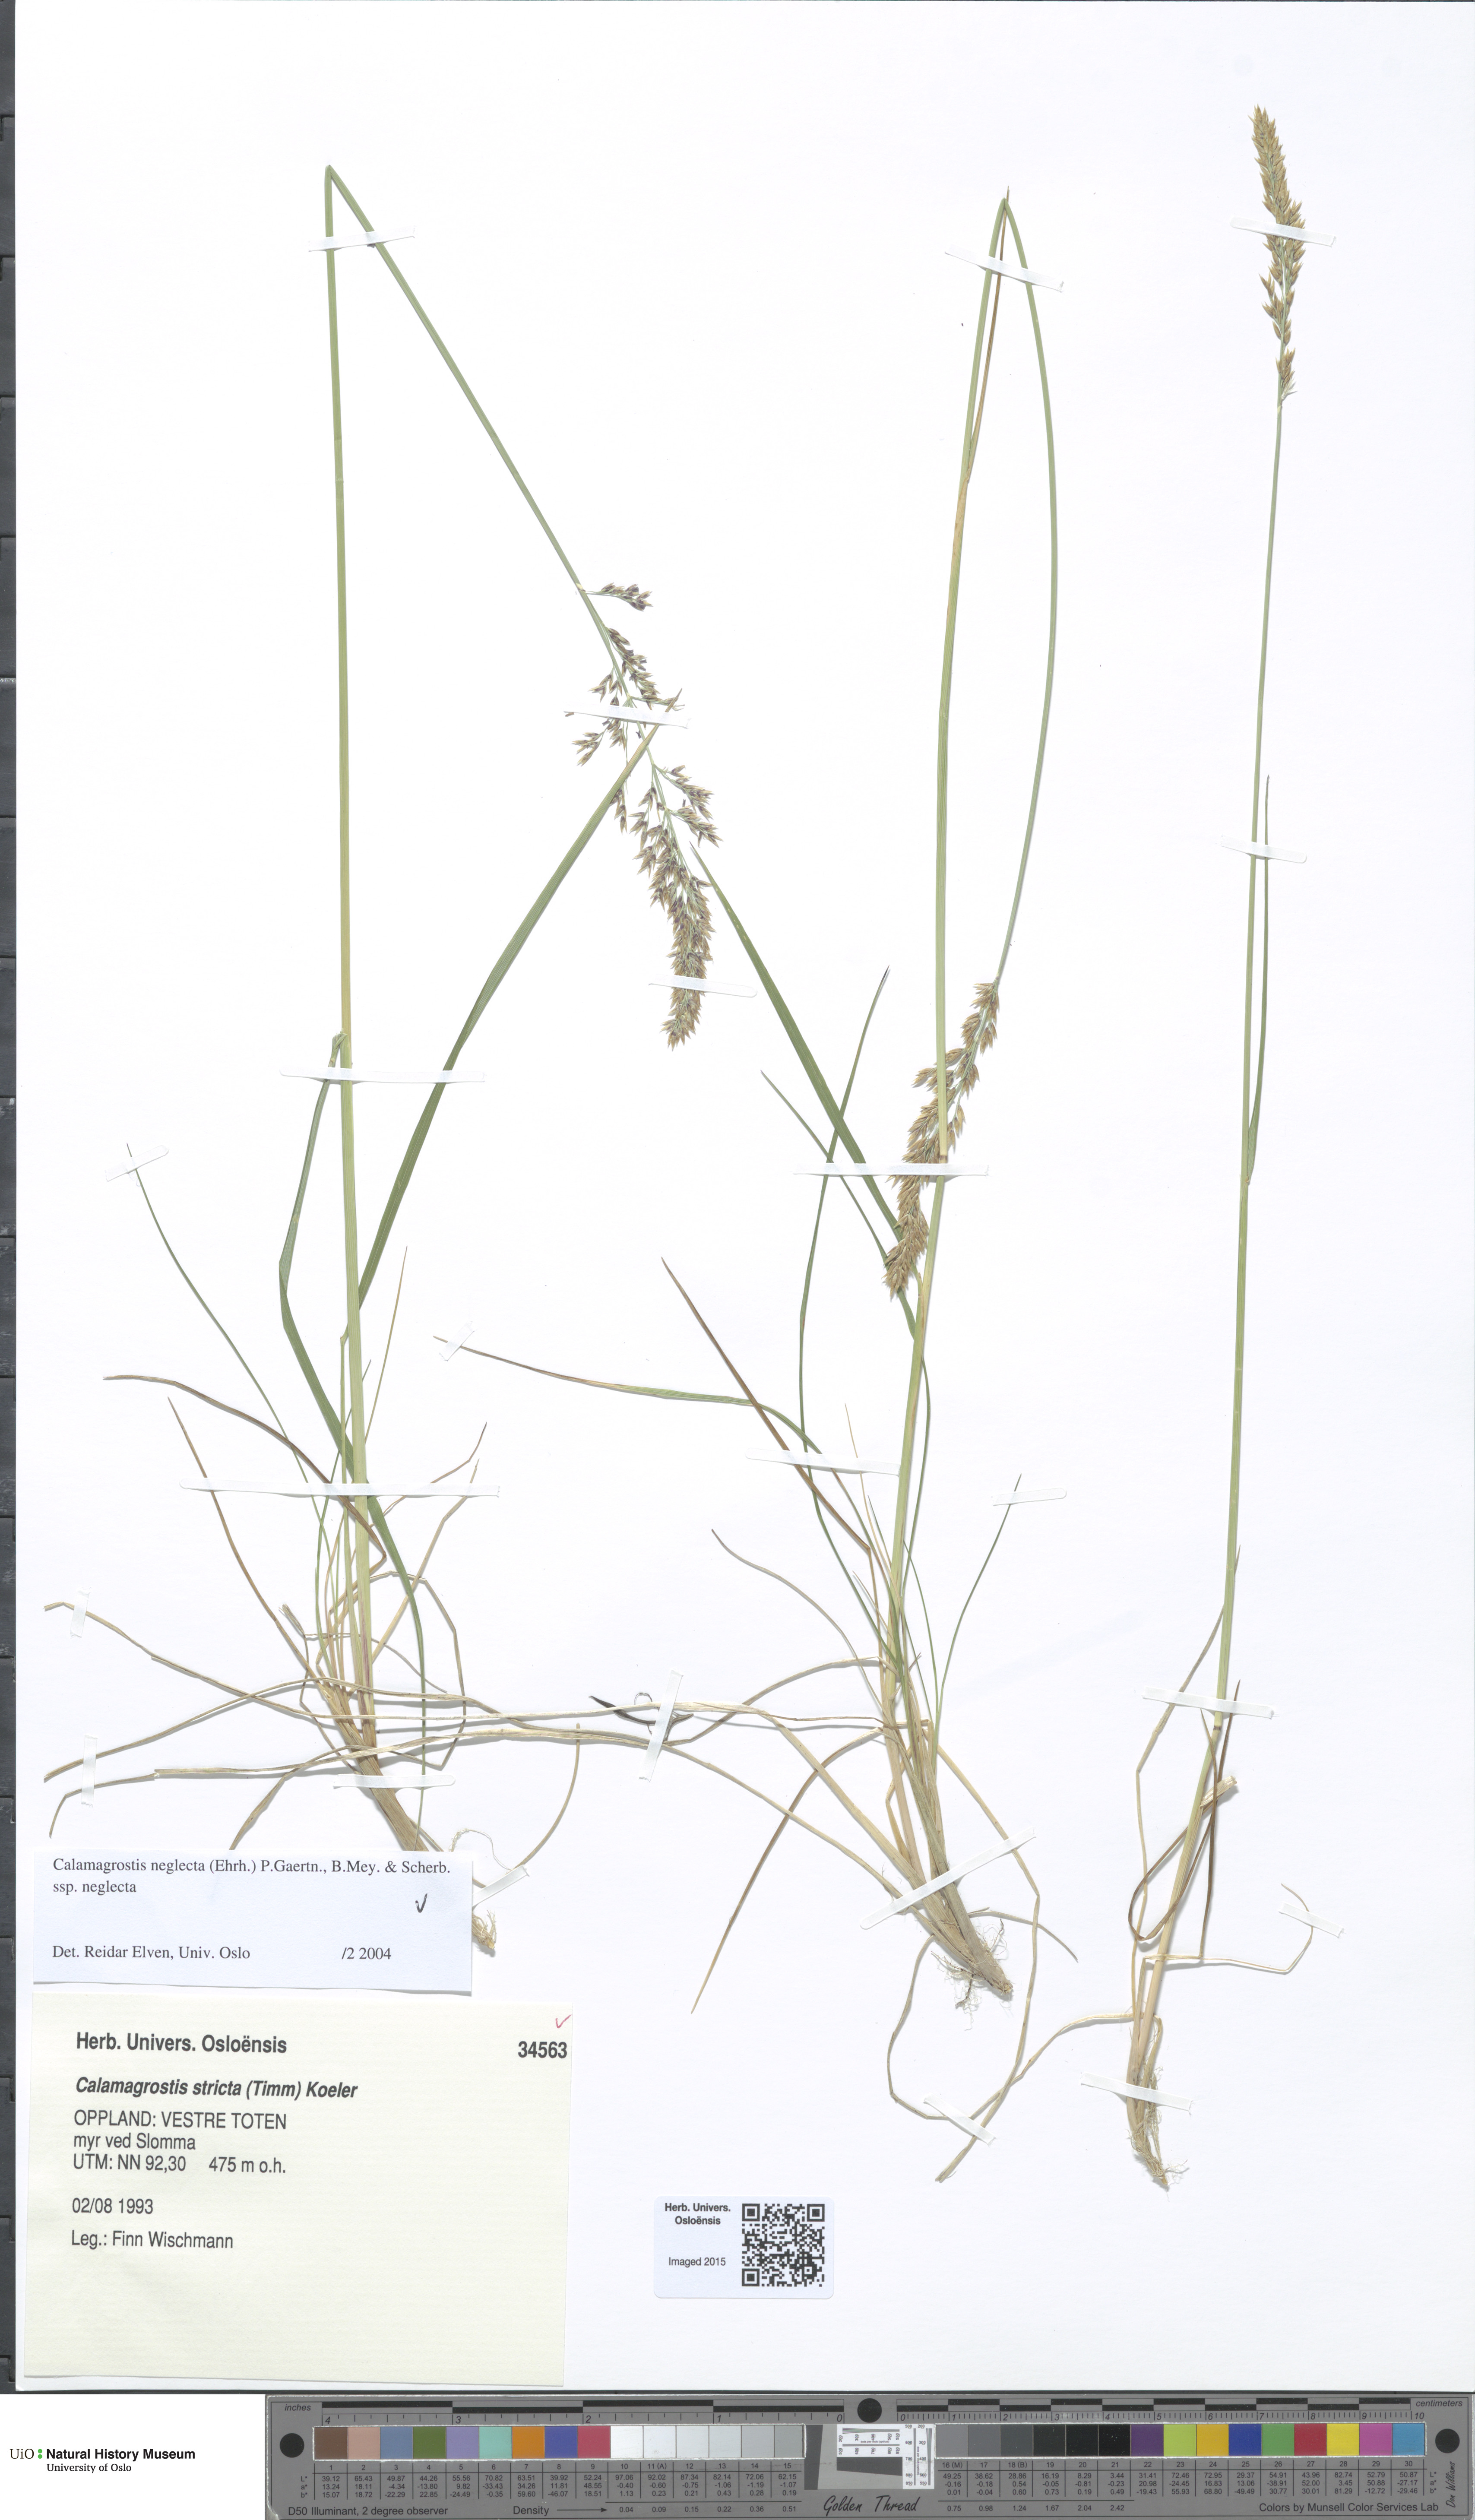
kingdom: Plantae
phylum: Tracheophyta
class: Liliopsida
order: Poales
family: Poaceae
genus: Achnatherum
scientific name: Achnatherum calamagrostis
